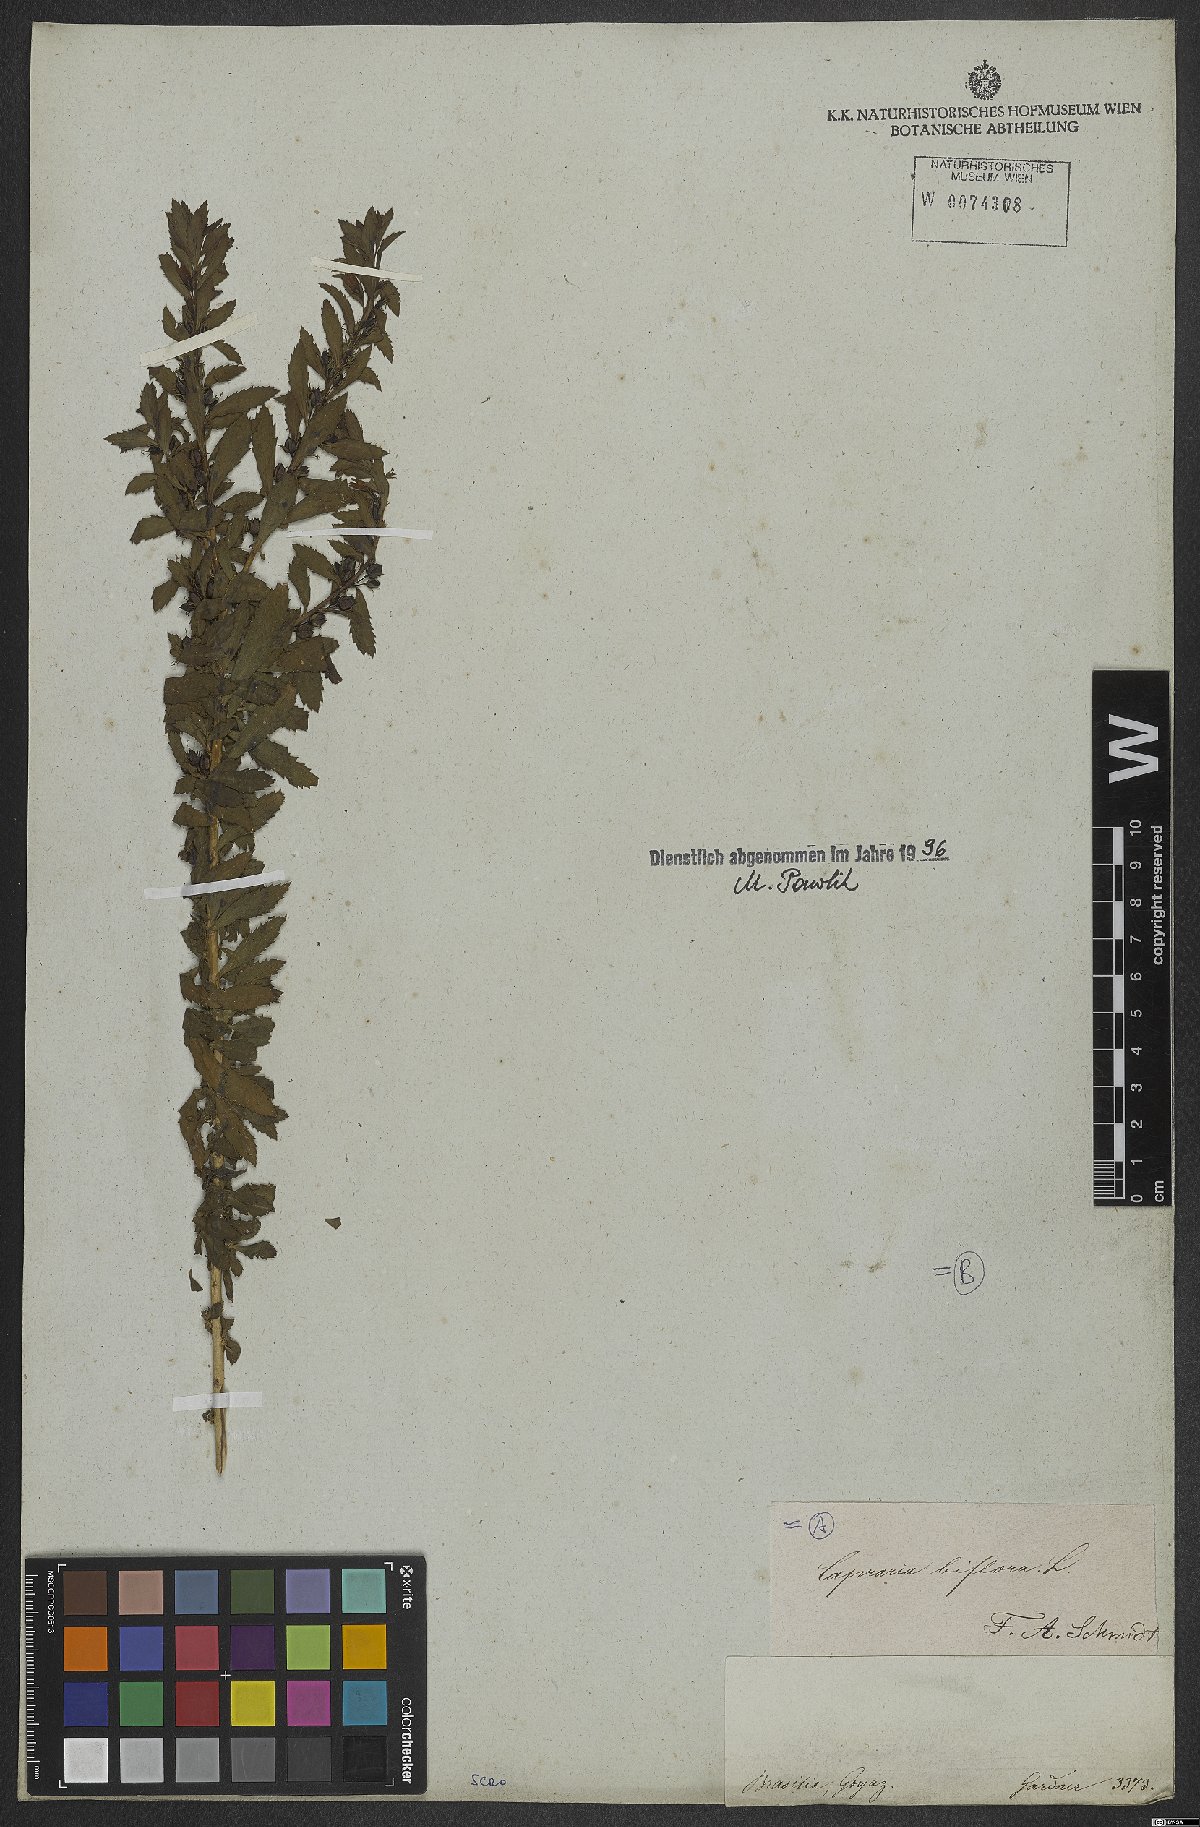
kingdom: Plantae
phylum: Tracheophyta
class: Magnoliopsida
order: Lamiales
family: Scrophulariaceae
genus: Capraria
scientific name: Capraria biflora
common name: Goatweed
